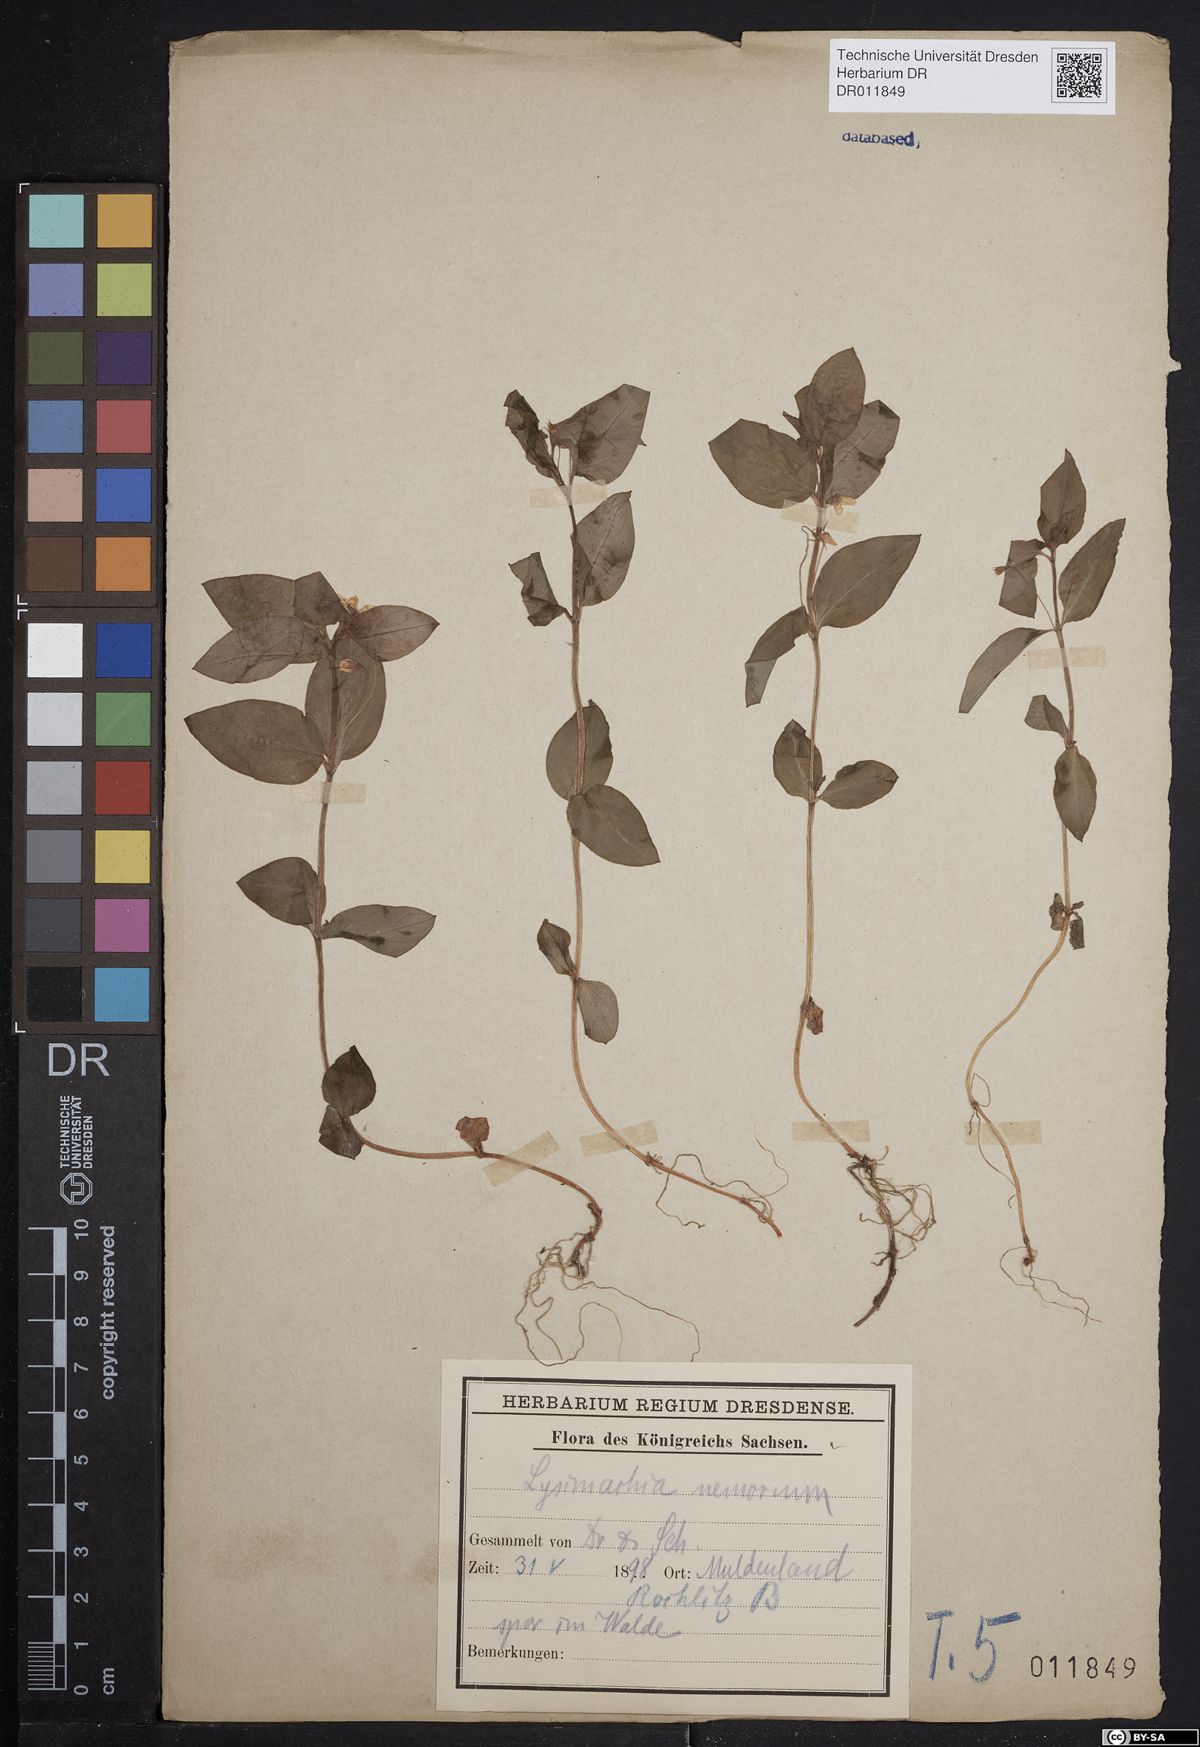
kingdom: Plantae
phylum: Tracheophyta
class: Magnoliopsida
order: Ericales
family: Primulaceae
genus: Lysimachia
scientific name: Lysimachia nemorum
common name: Yellow pimpernel
